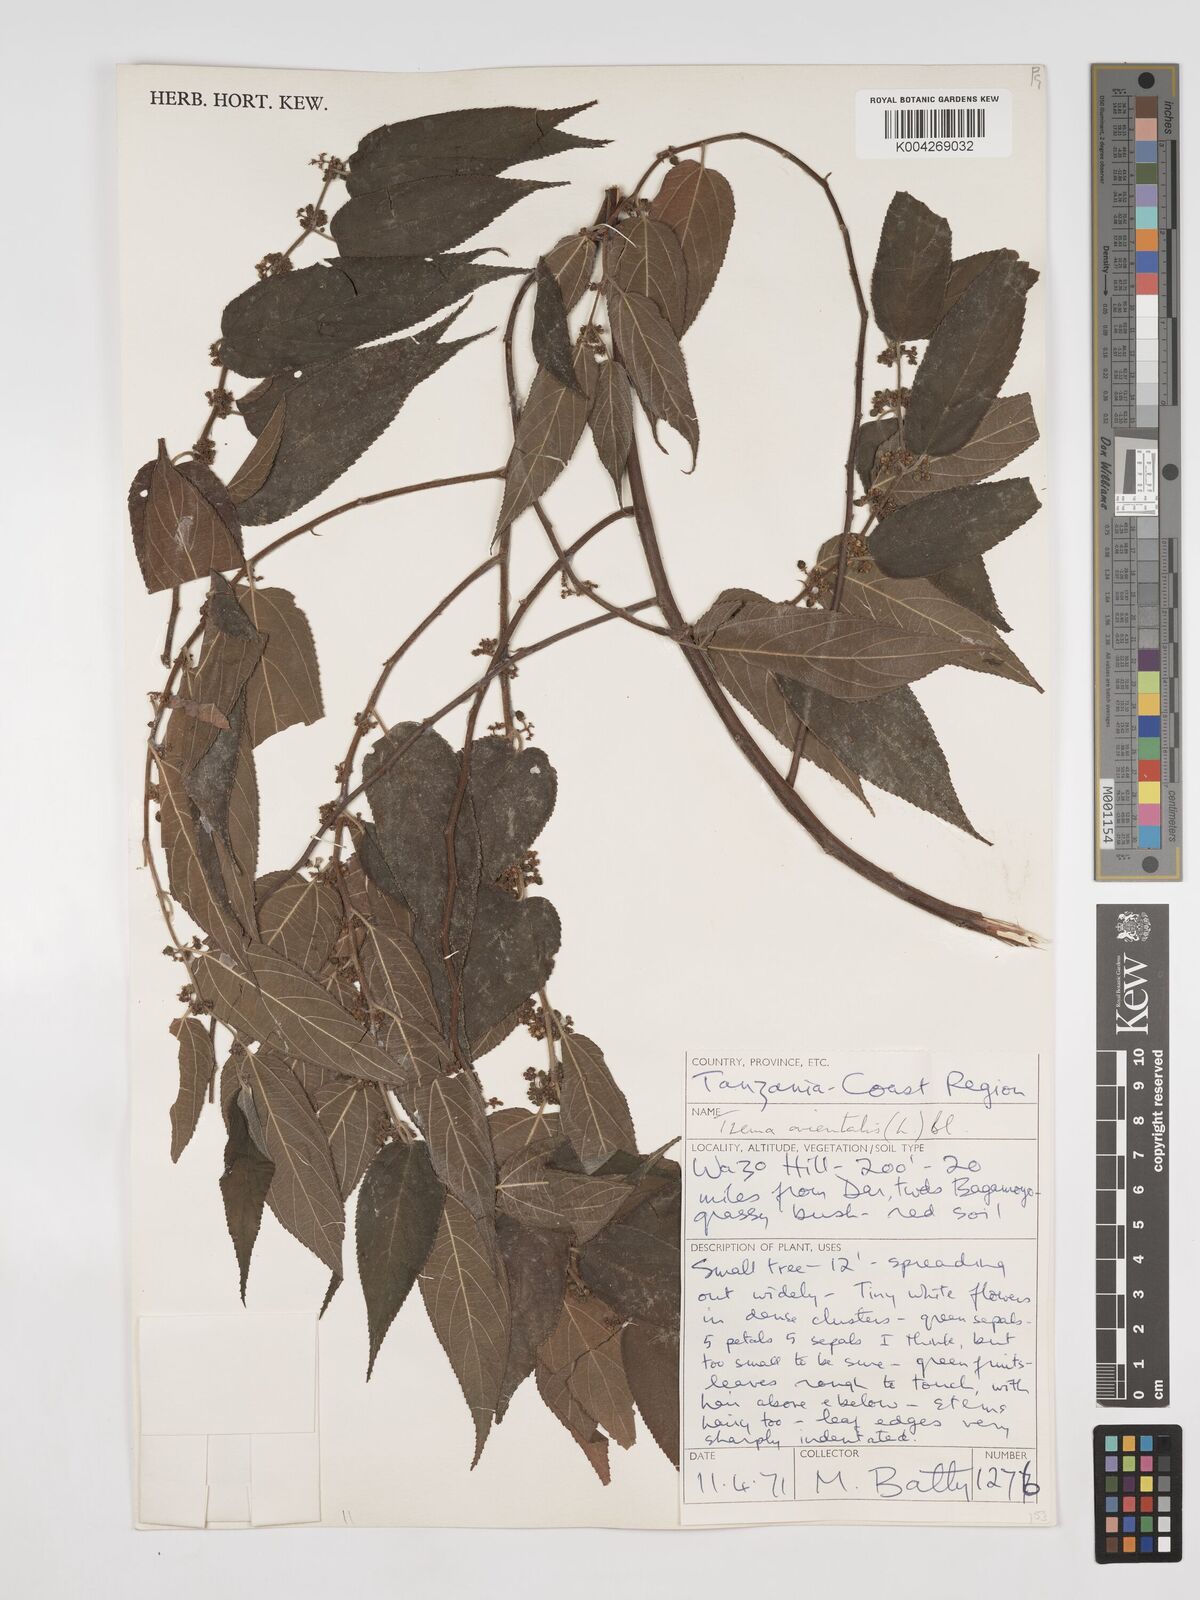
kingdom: Plantae
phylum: Tracheophyta
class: Magnoliopsida
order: Rosales
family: Cannabaceae
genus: Trema
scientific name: Trema orientale
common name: Indian charcoal tree
